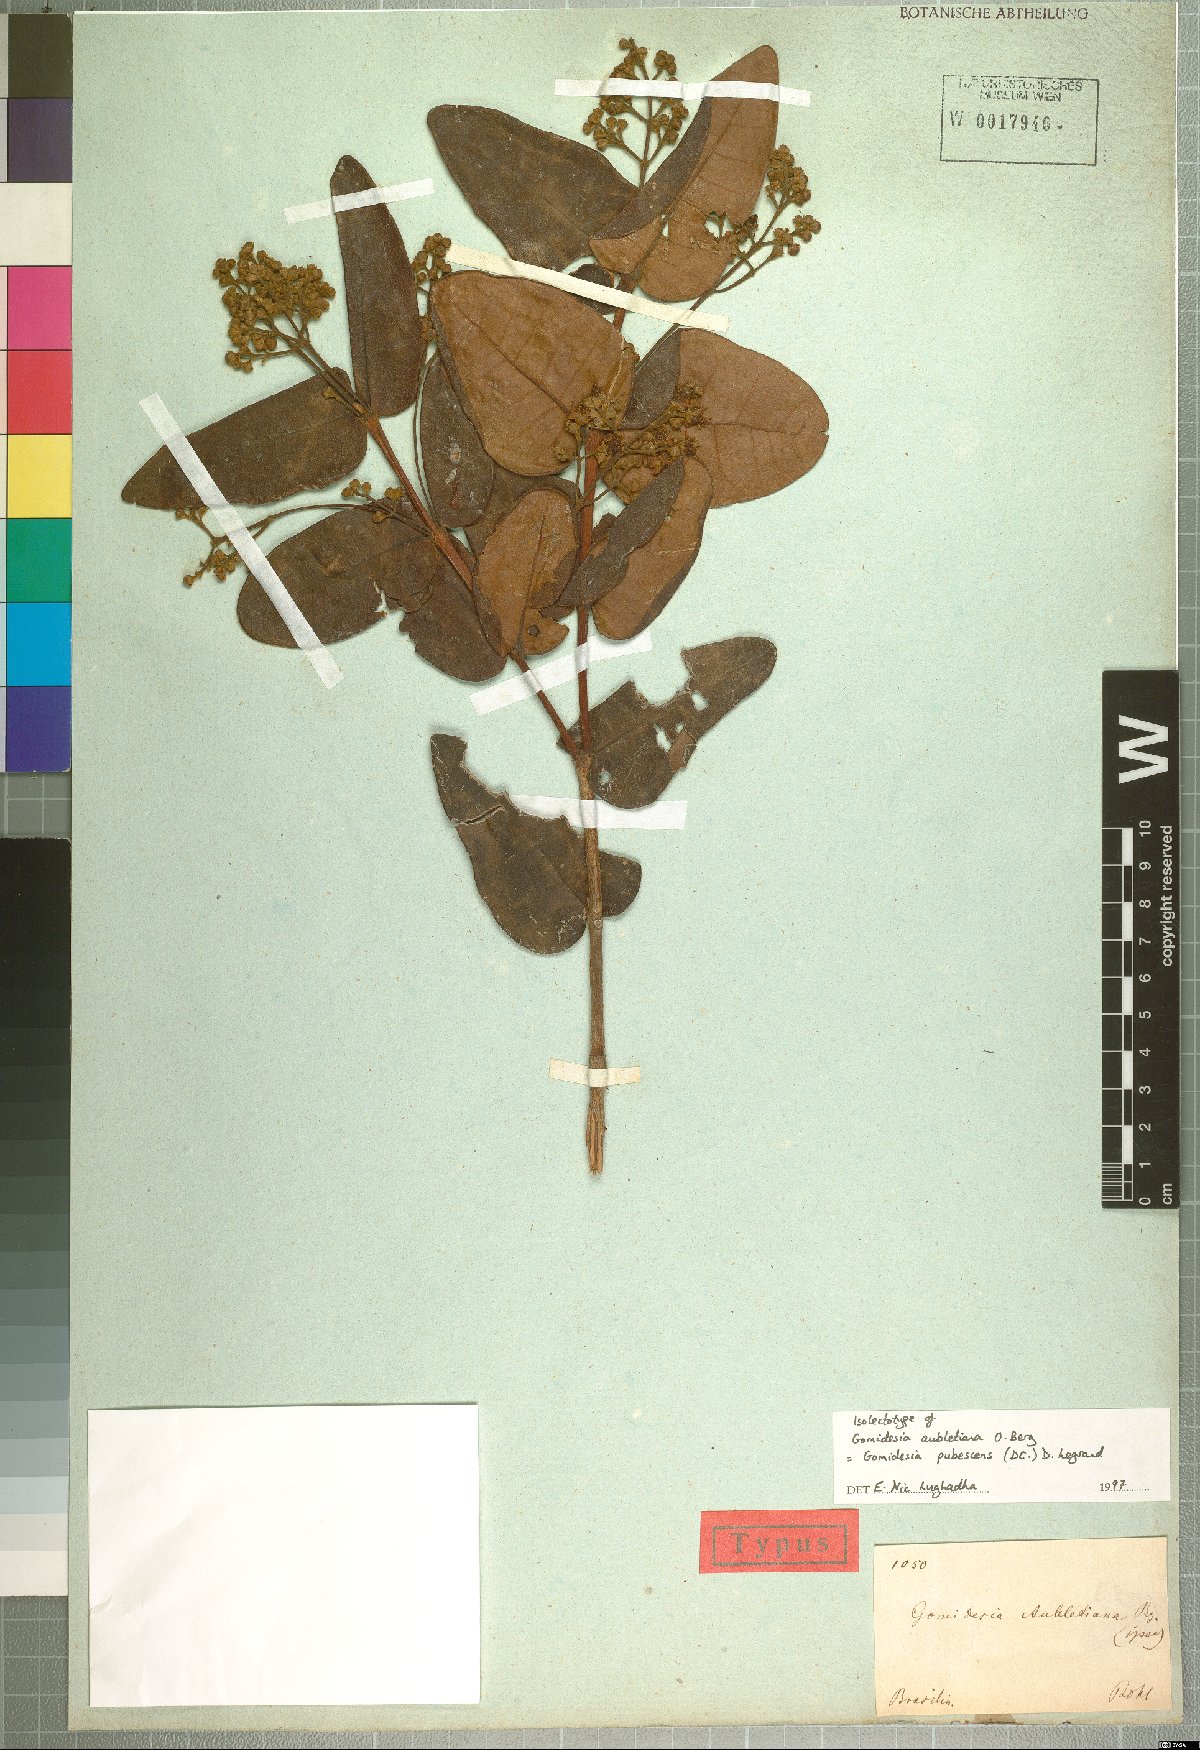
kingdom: Plantae
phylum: Tracheophyta
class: Magnoliopsida
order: Myrtales
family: Myrtaceae
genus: Myrcia
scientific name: Myrcia pubescens
